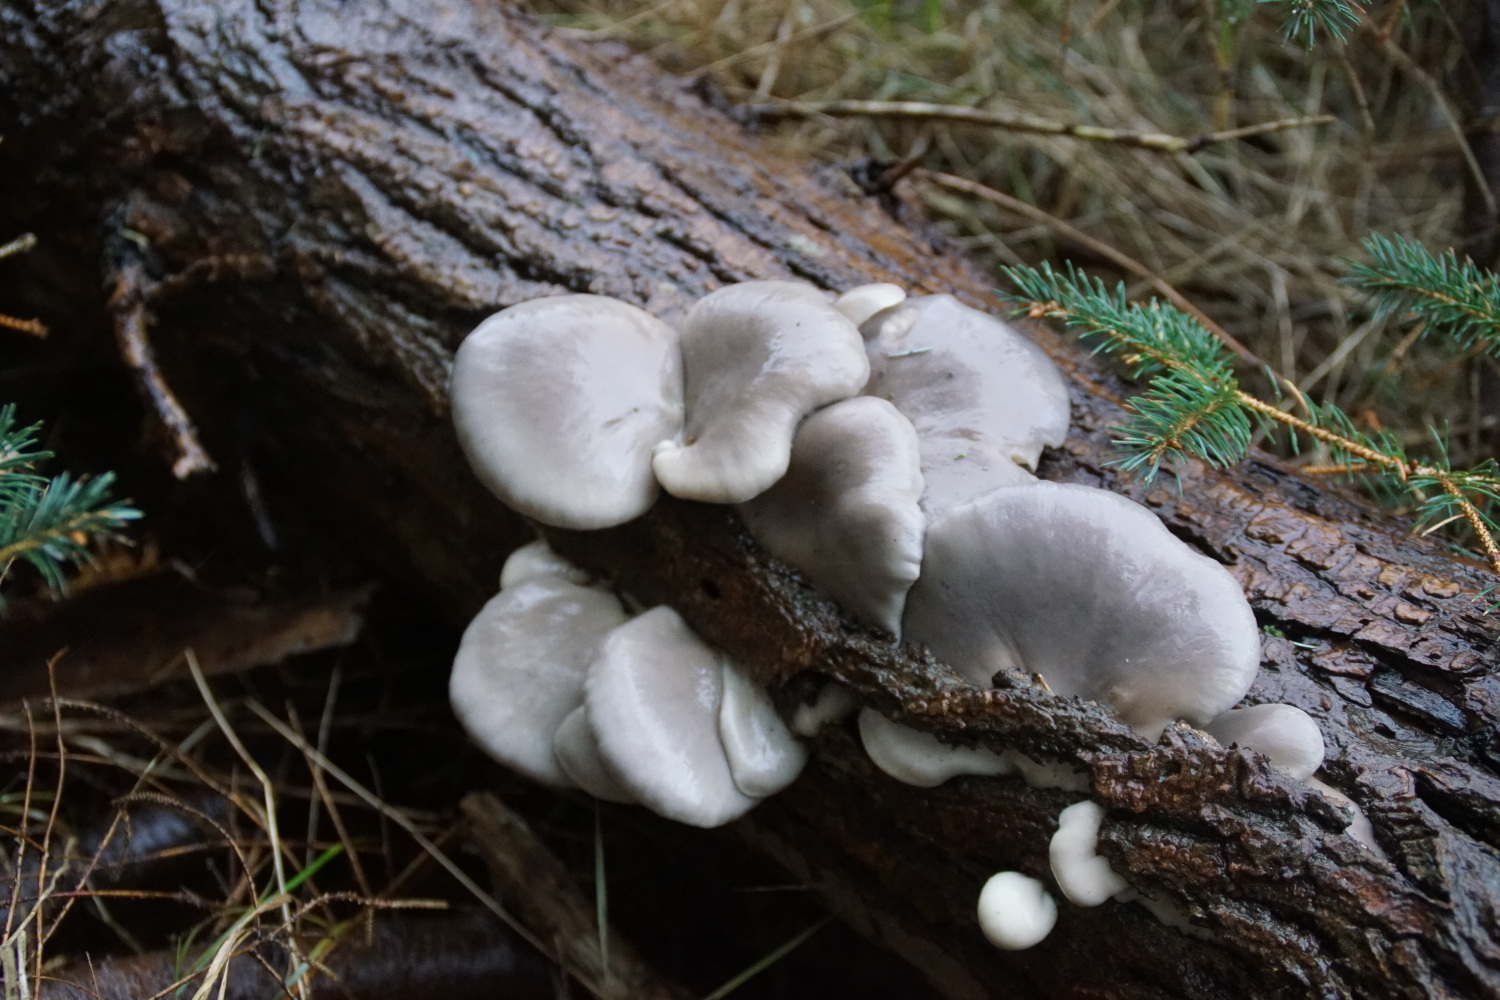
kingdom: Fungi
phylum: Basidiomycota
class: Agaricomycetes
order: Agaricales
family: Pleurotaceae
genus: Pleurotus
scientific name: Pleurotus ostreatus
